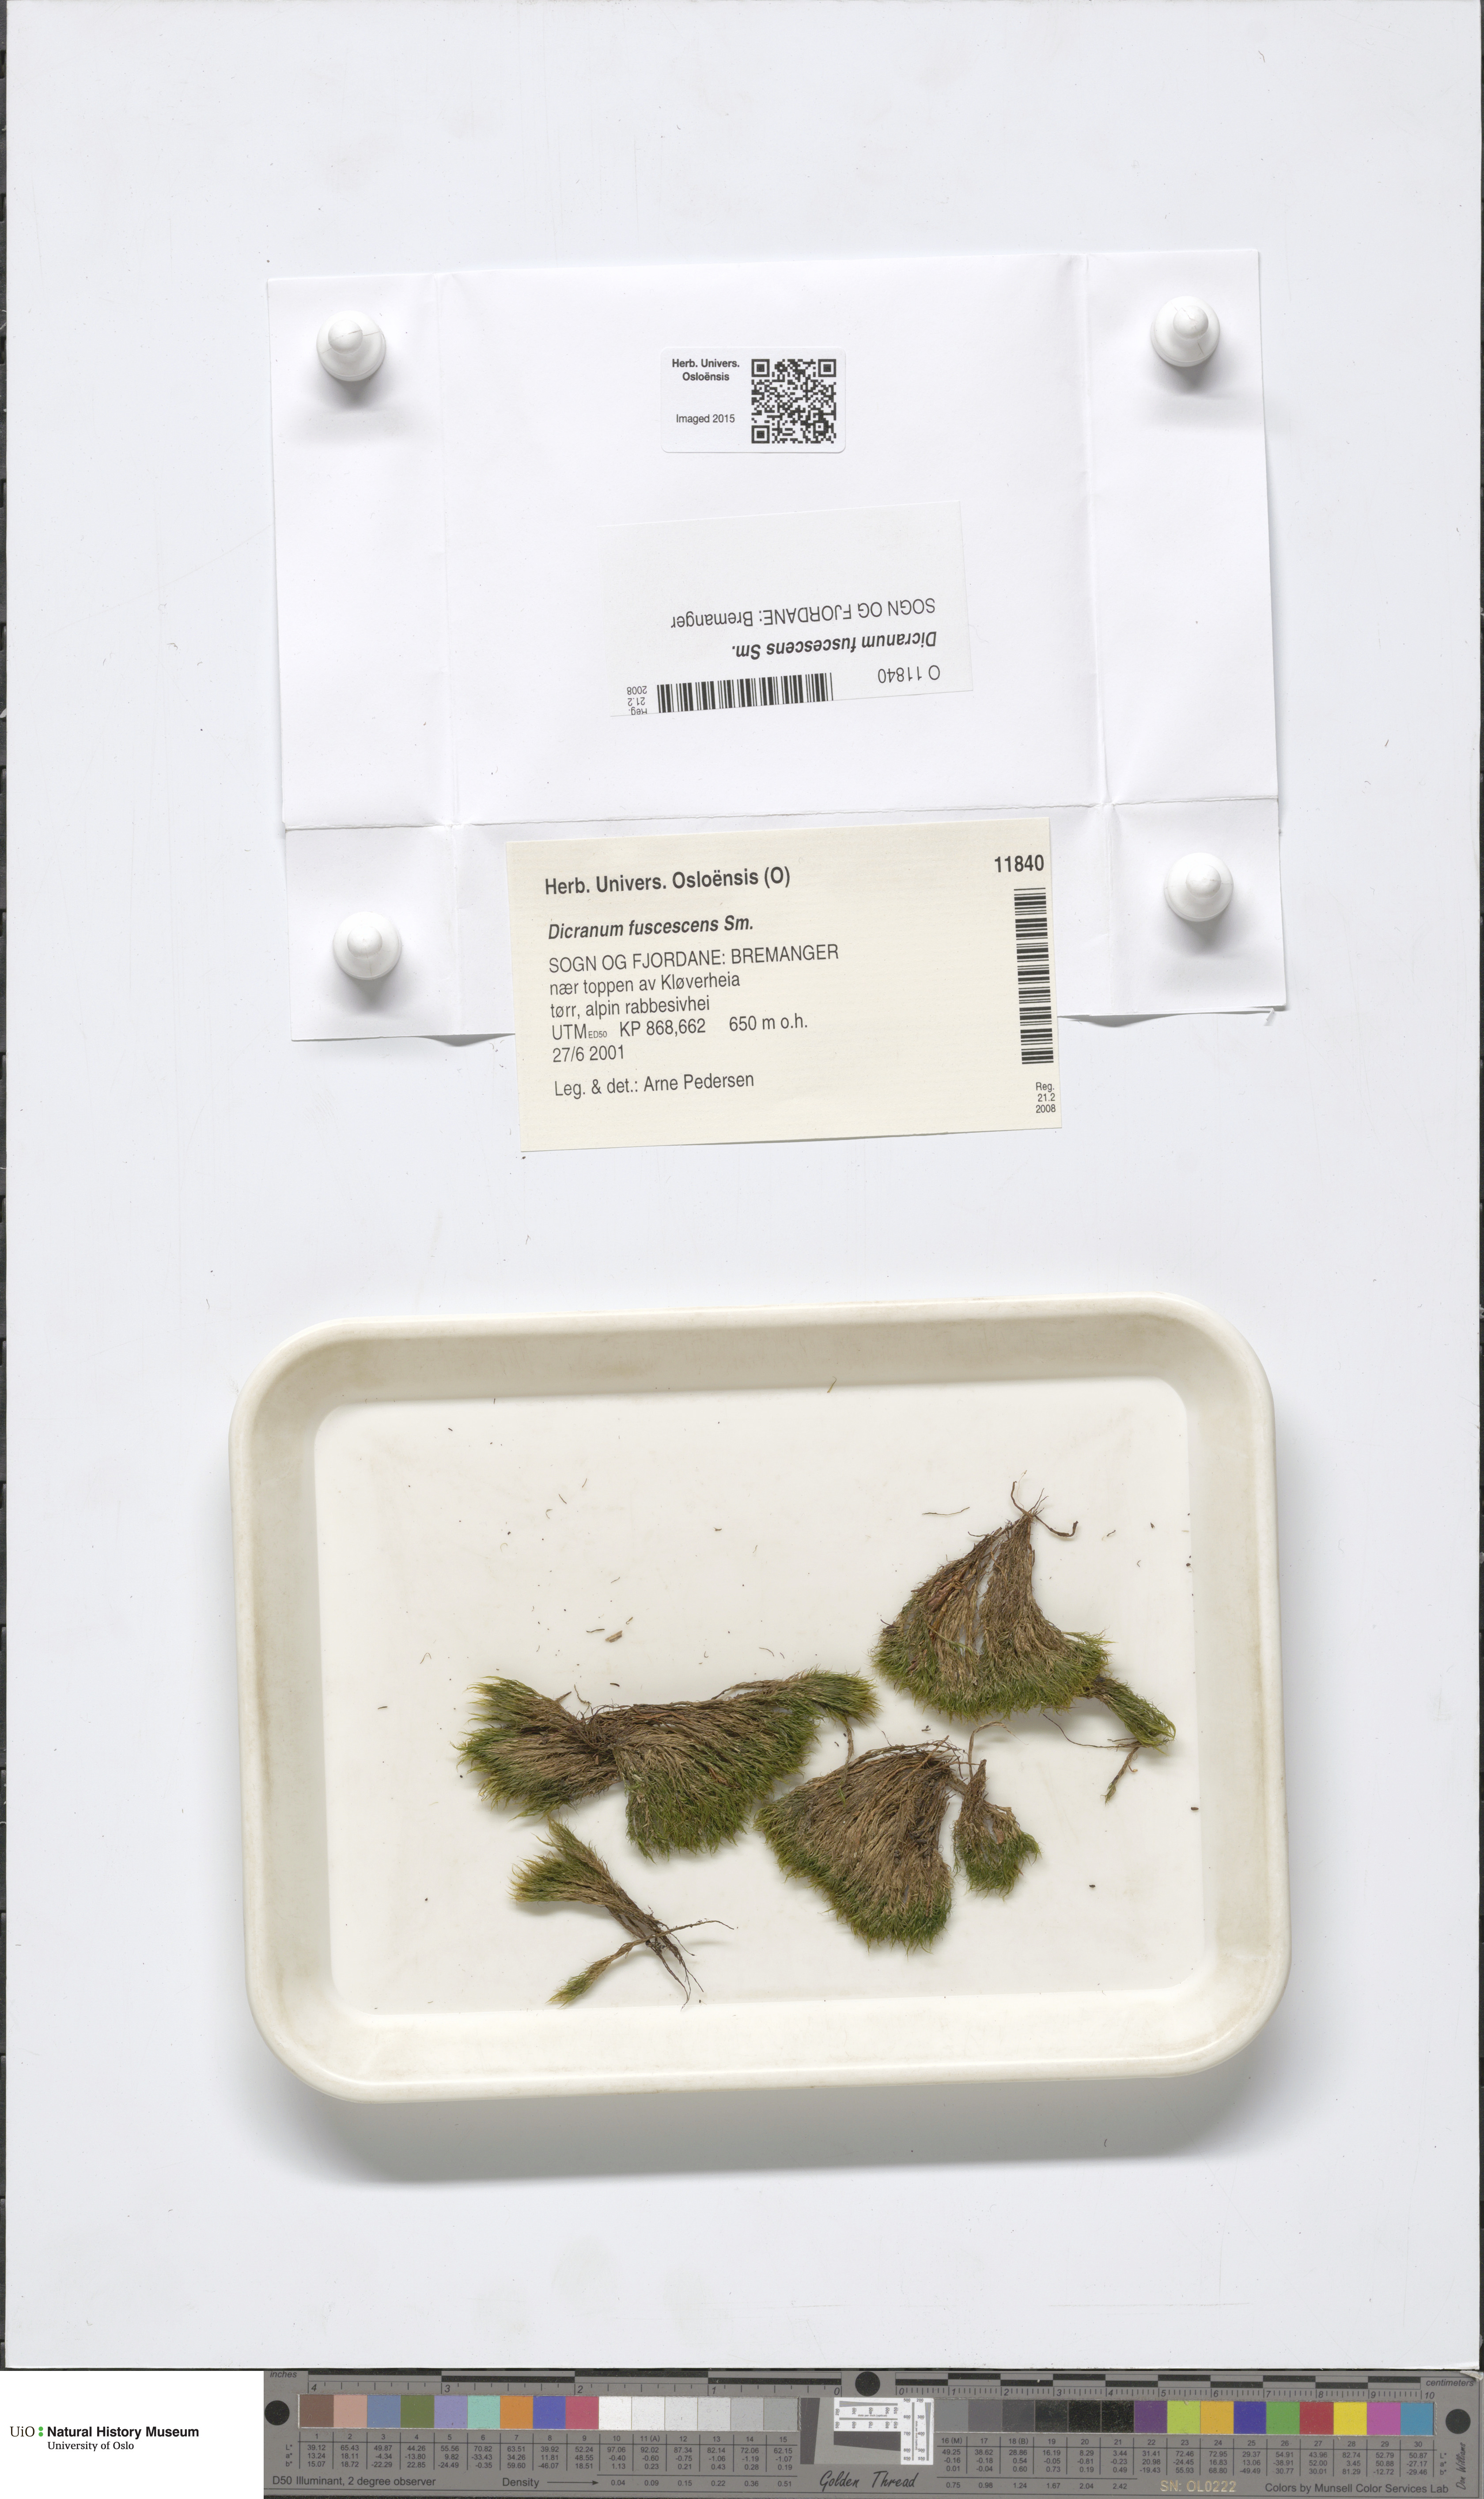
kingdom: Plantae
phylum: Bryophyta
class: Bryopsida
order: Dicranales
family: Dicranaceae
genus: Dicranum
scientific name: Dicranum fuscescens
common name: Curly heron's-bill moss
